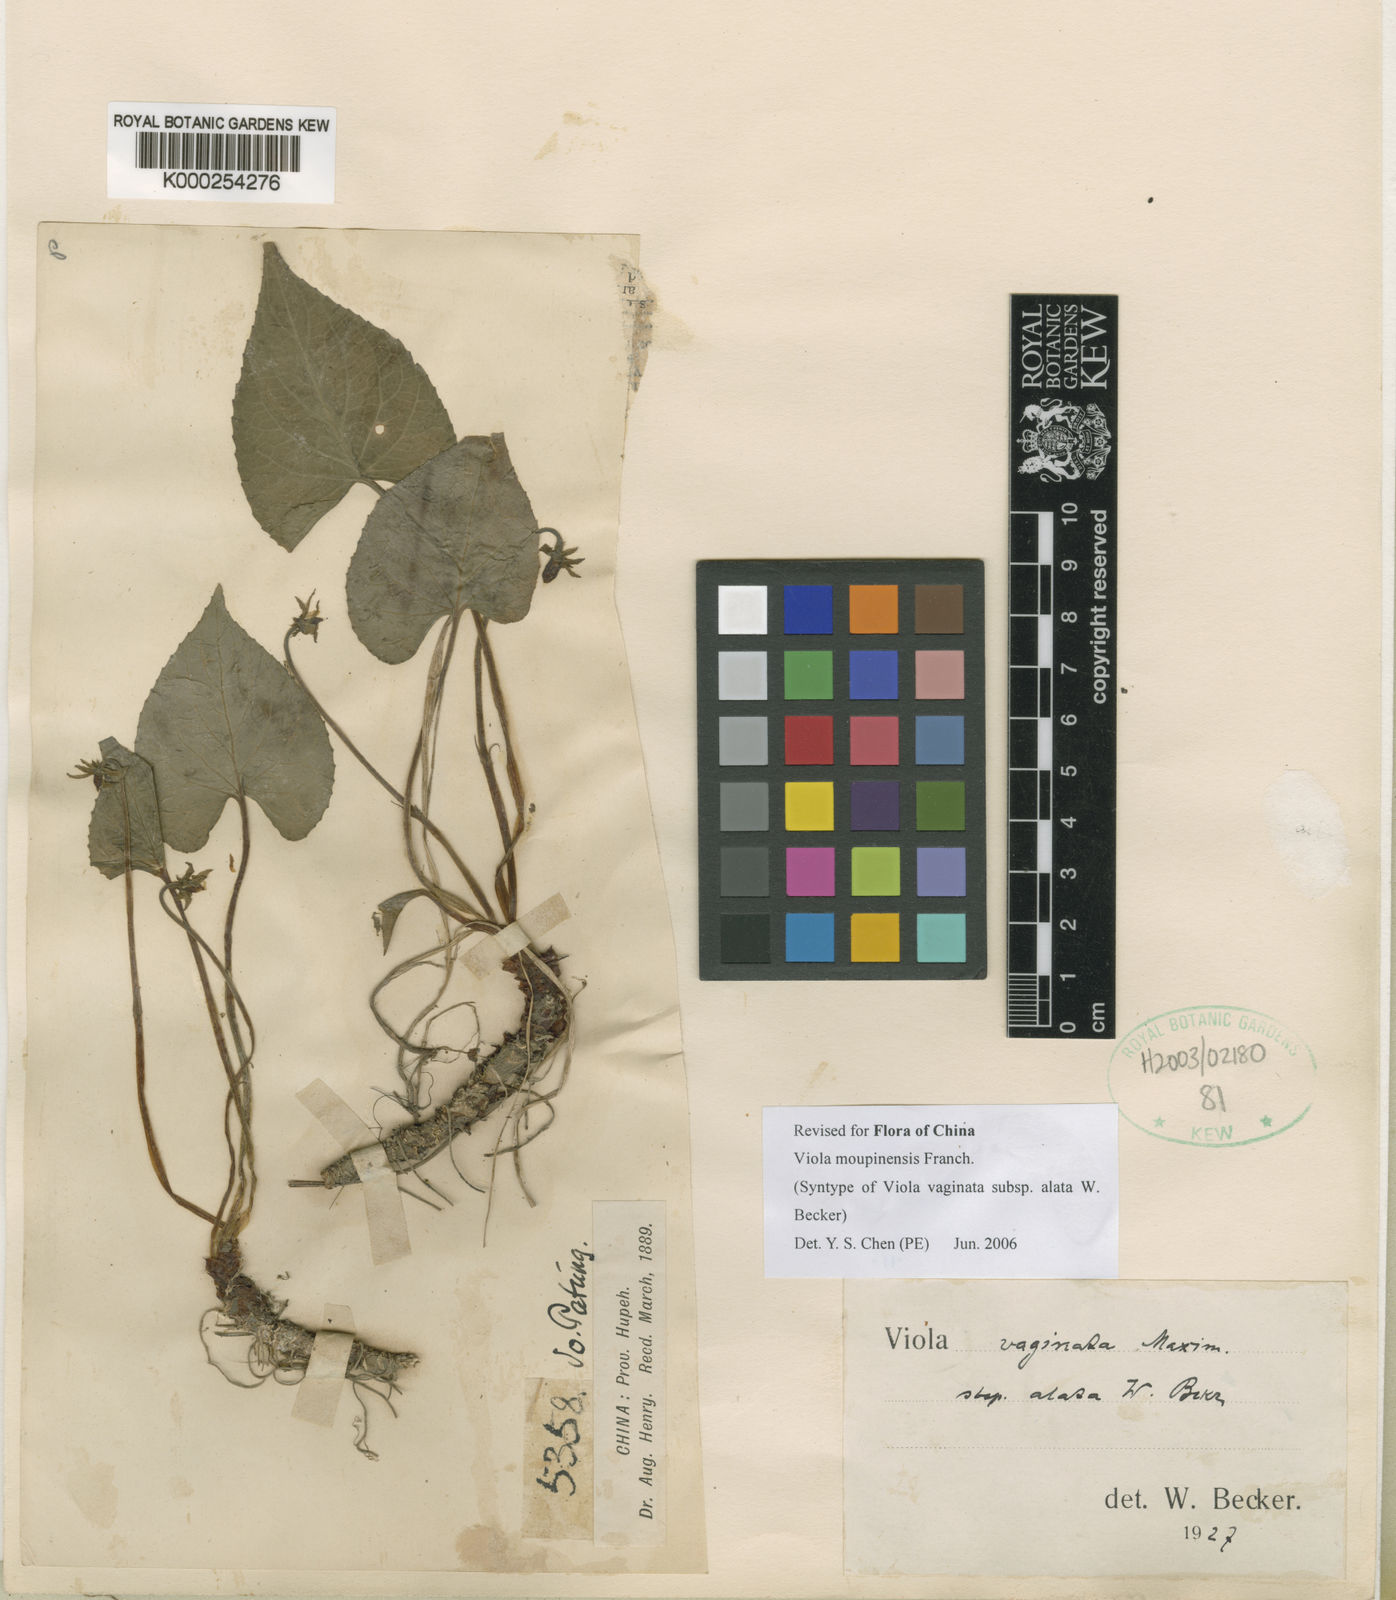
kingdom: Plantae
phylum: Tracheophyta
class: Magnoliopsida
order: Malpighiales
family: Violaceae
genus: Viola
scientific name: Viola vaginata
